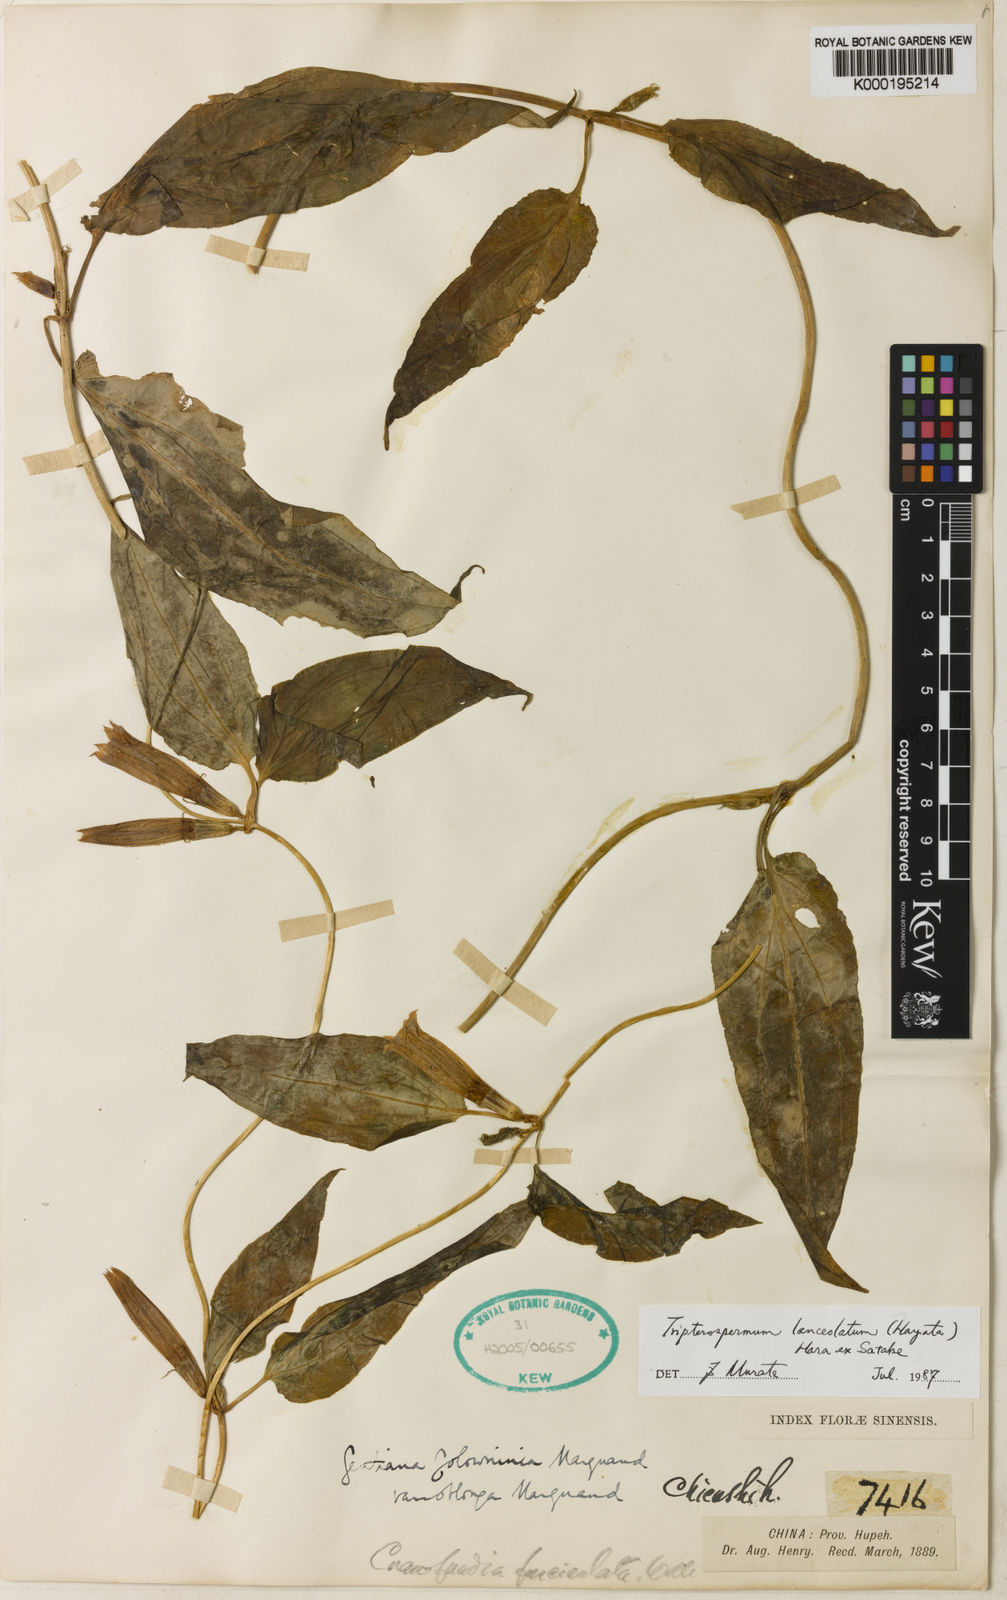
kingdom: Plantae
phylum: Tracheophyta
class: Magnoliopsida
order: Gentianales
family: Gentianaceae
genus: Tripterospermum
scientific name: Tripterospermum lanceolatum
